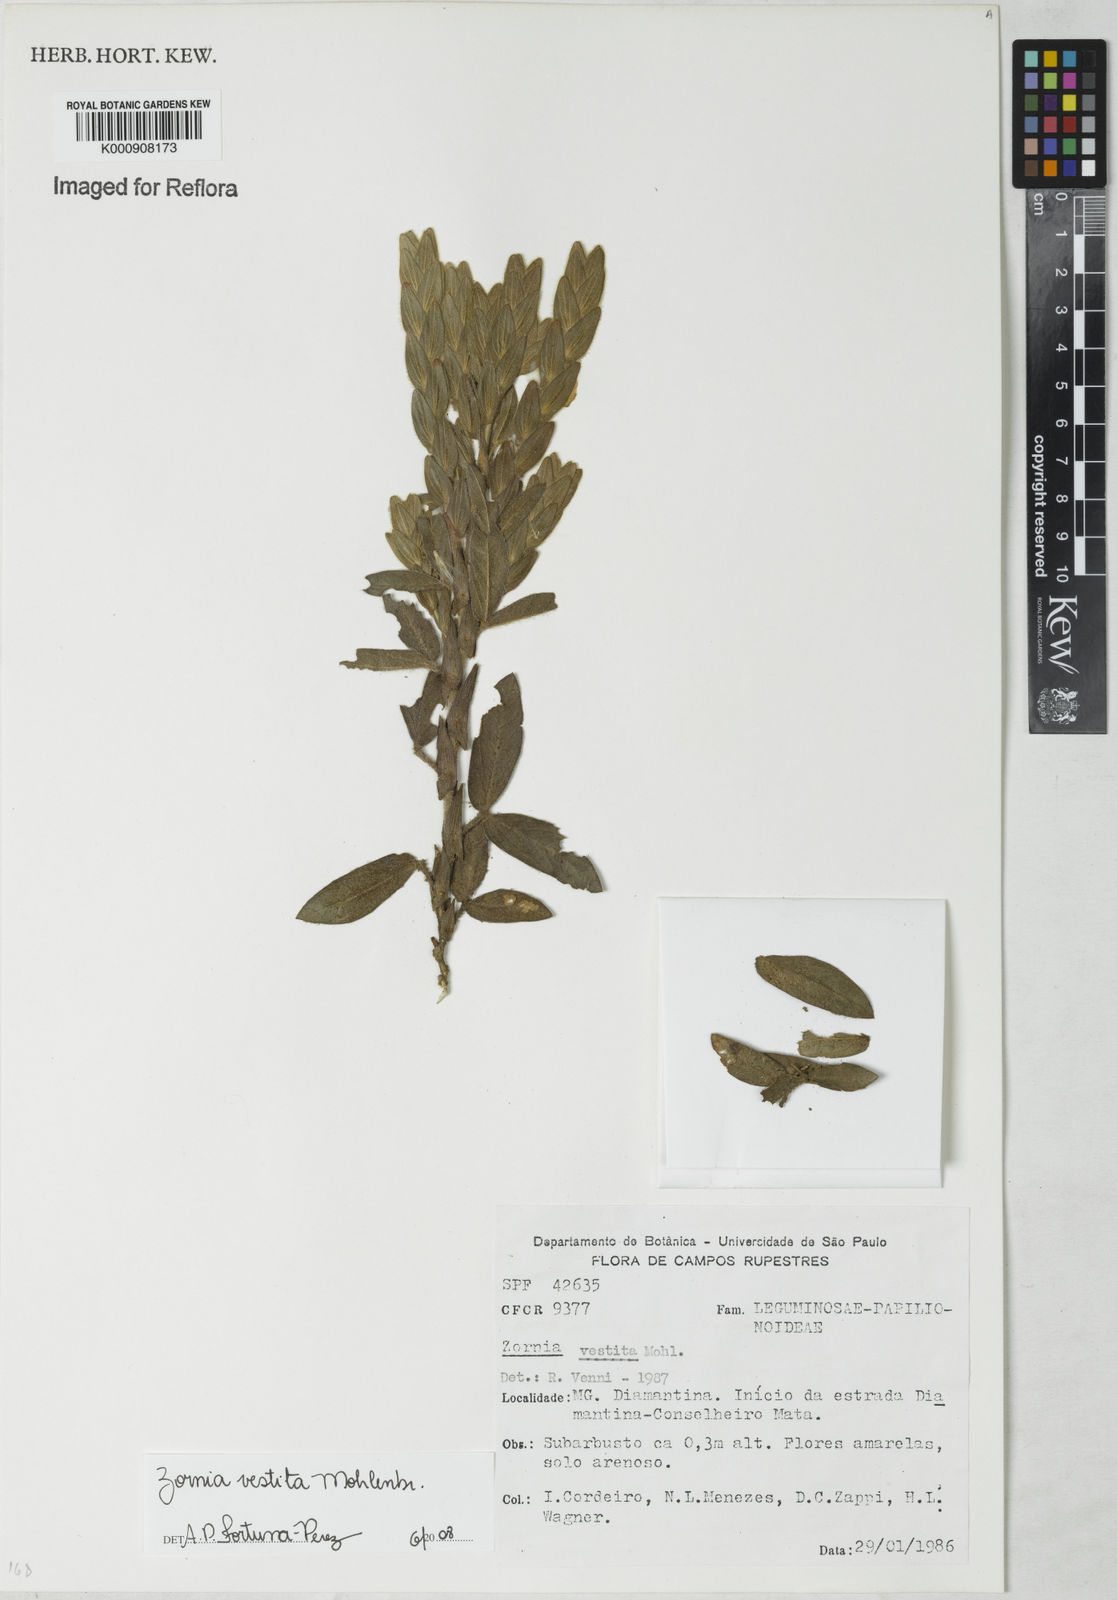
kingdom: Plantae
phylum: Tracheophyta
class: Magnoliopsida
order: Fabales
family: Fabaceae
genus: Zornia
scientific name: Zornia villosa
